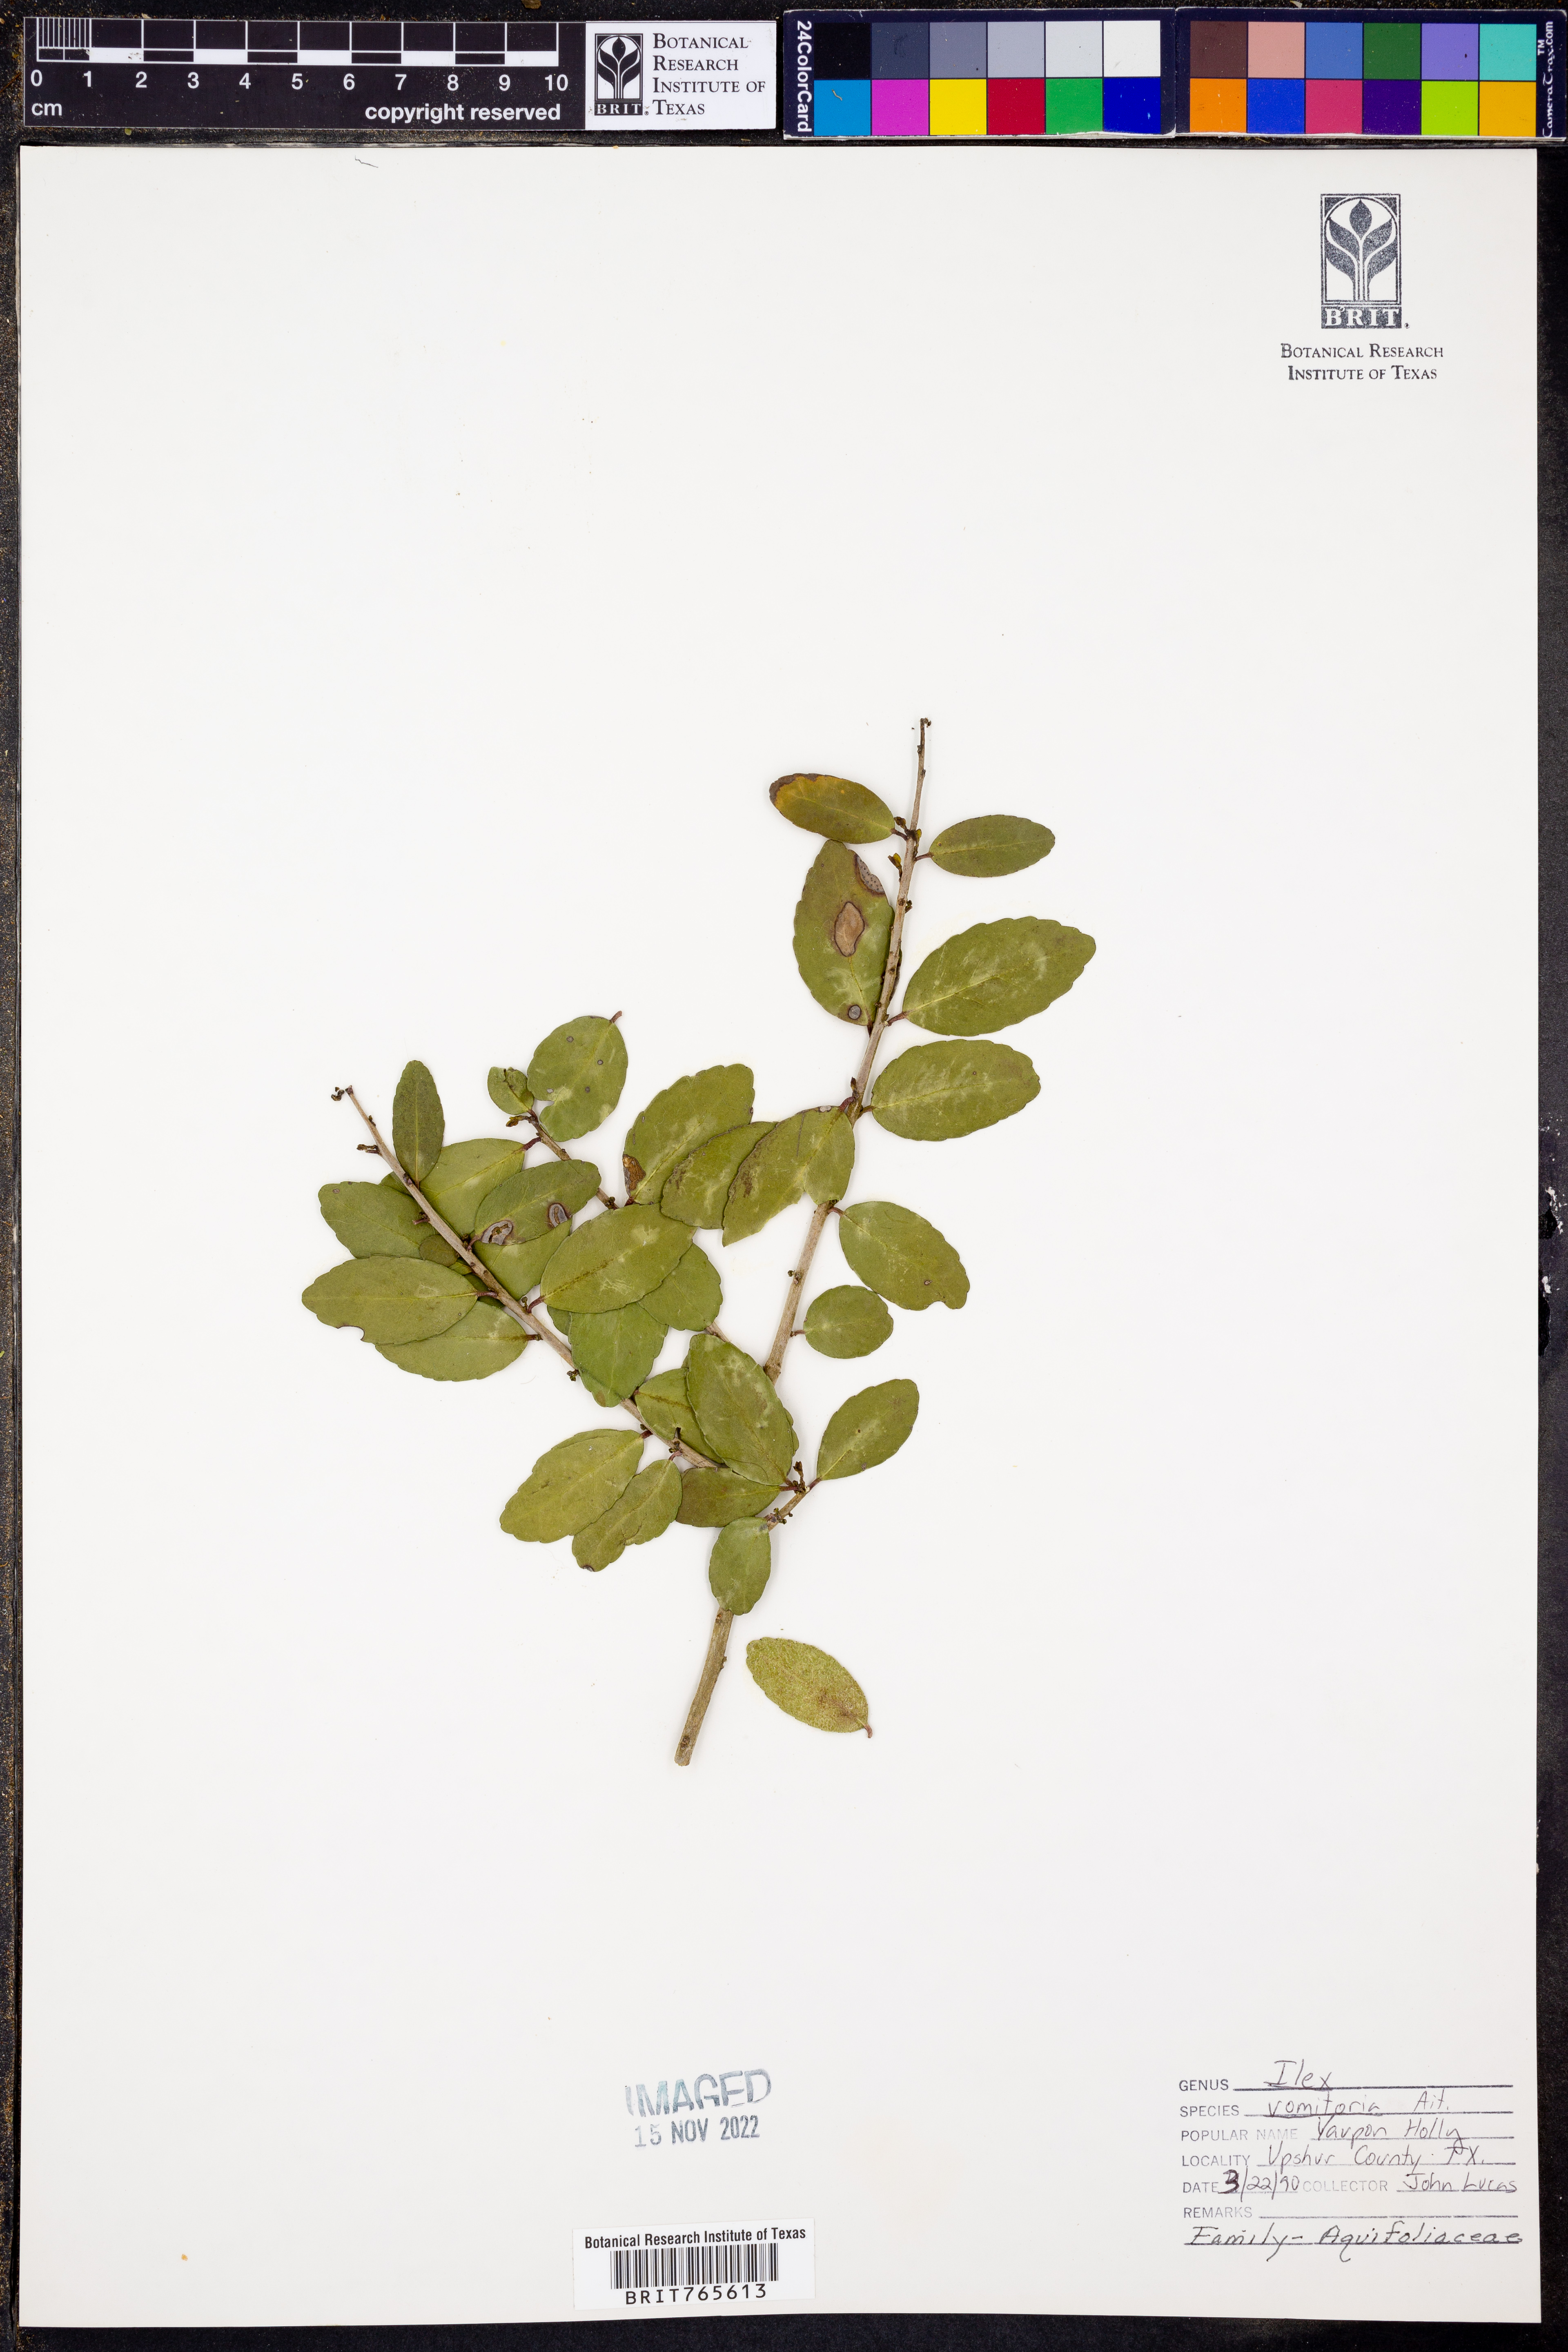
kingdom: Plantae
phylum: Tracheophyta
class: Magnoliopsida
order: Aquifoliales
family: Aquifoliaceae
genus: Ilex
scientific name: Ilex vomitoria
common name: Yaupon holly
